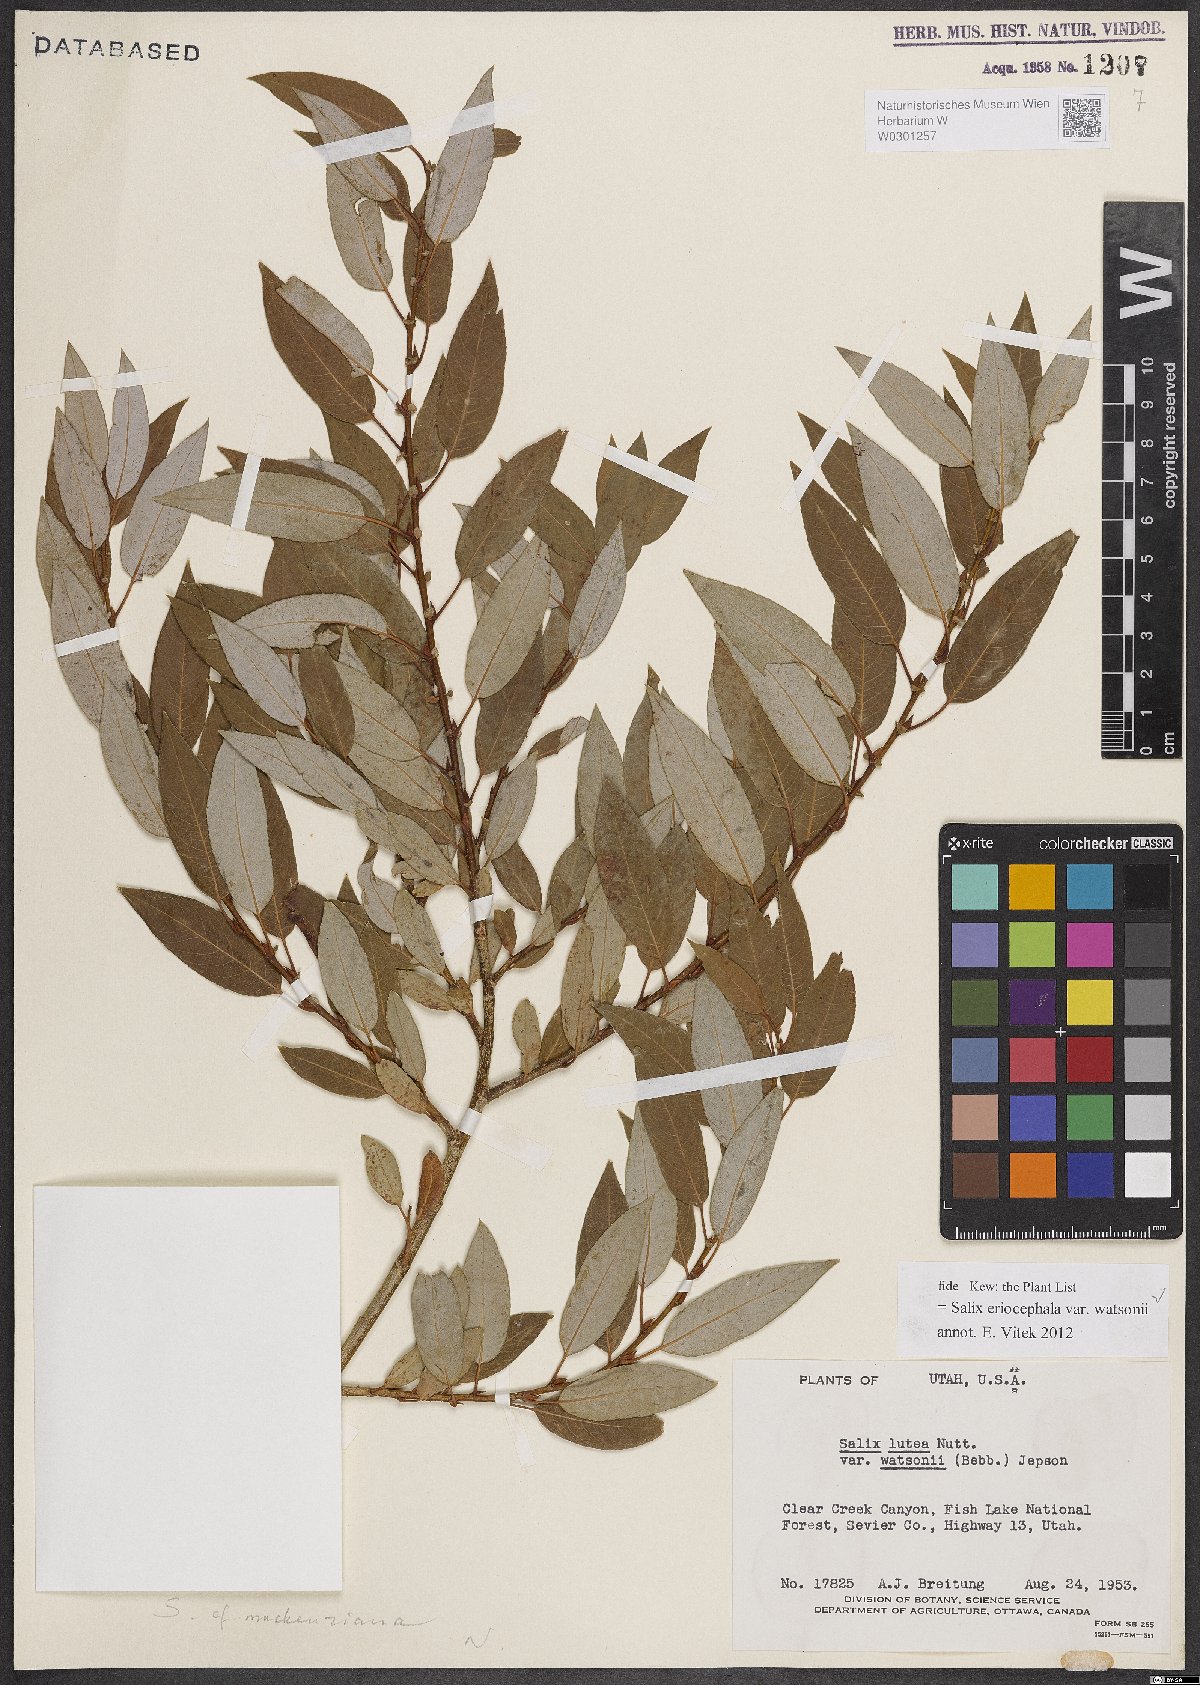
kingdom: Plantae
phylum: Tracheophyta
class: Magnoliopsida
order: Malpighiales
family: Salicaceae
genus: Salix
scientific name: Salix lutea
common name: Yellow willow
